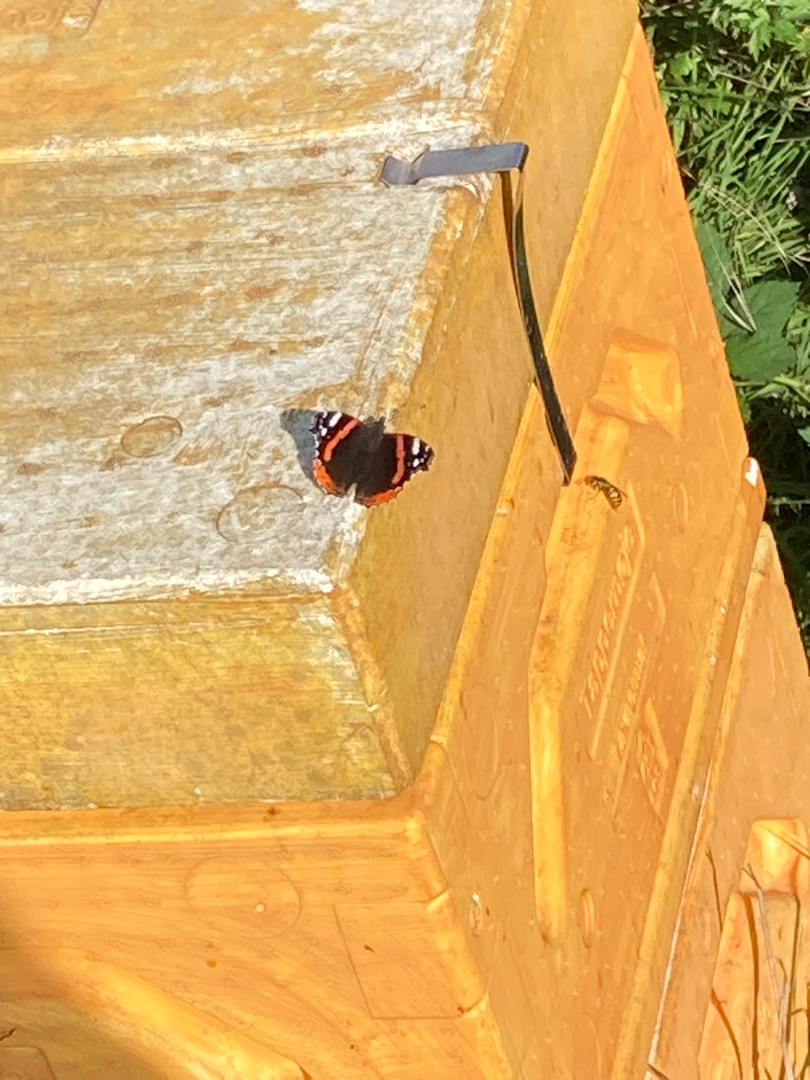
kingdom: Animalia
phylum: Arthropoda
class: Insecta
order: Lepidoptera
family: Nymphalidae
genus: Vanessa
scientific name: Vanessa atalanta
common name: Admiral
